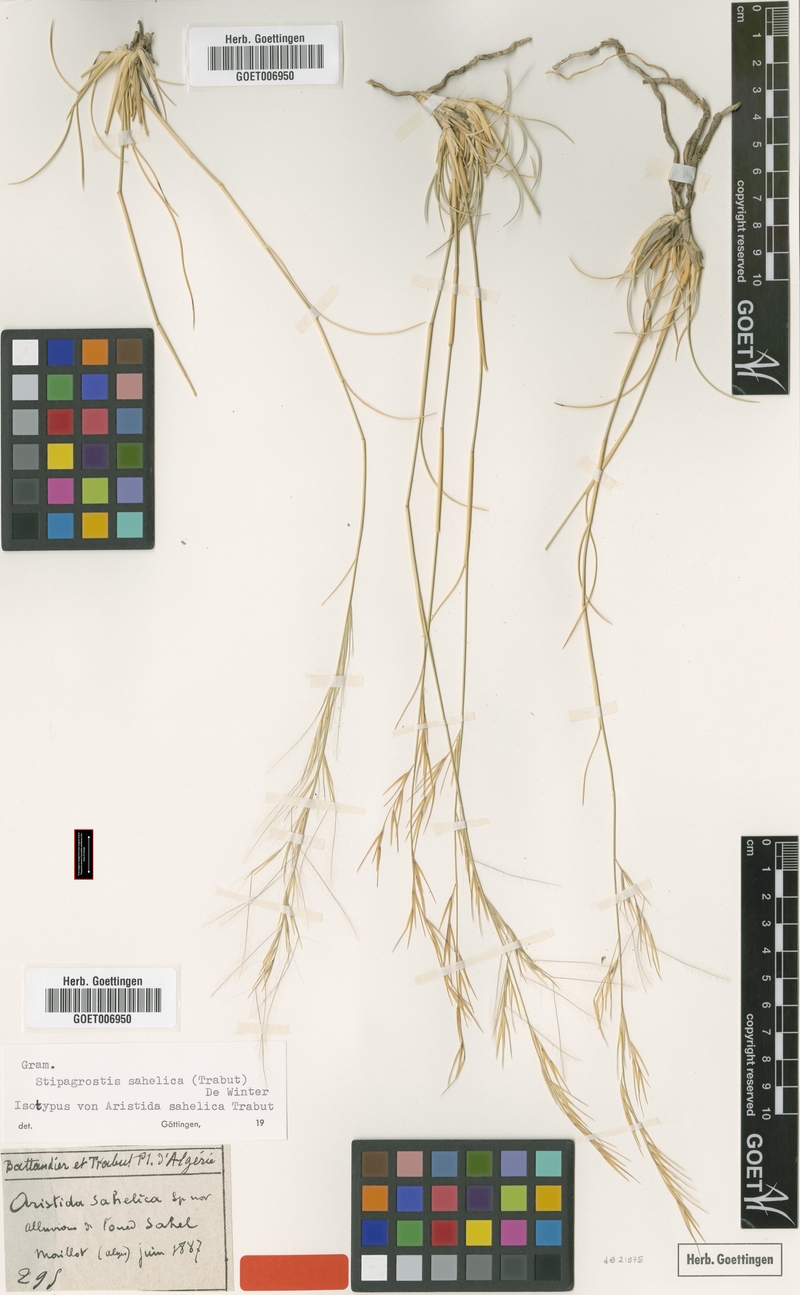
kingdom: Plantae
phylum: Tracheophyta
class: Liliopsida
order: Poales
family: Poaceae
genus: Stipagrostis
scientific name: Stipagrostis sahelica
